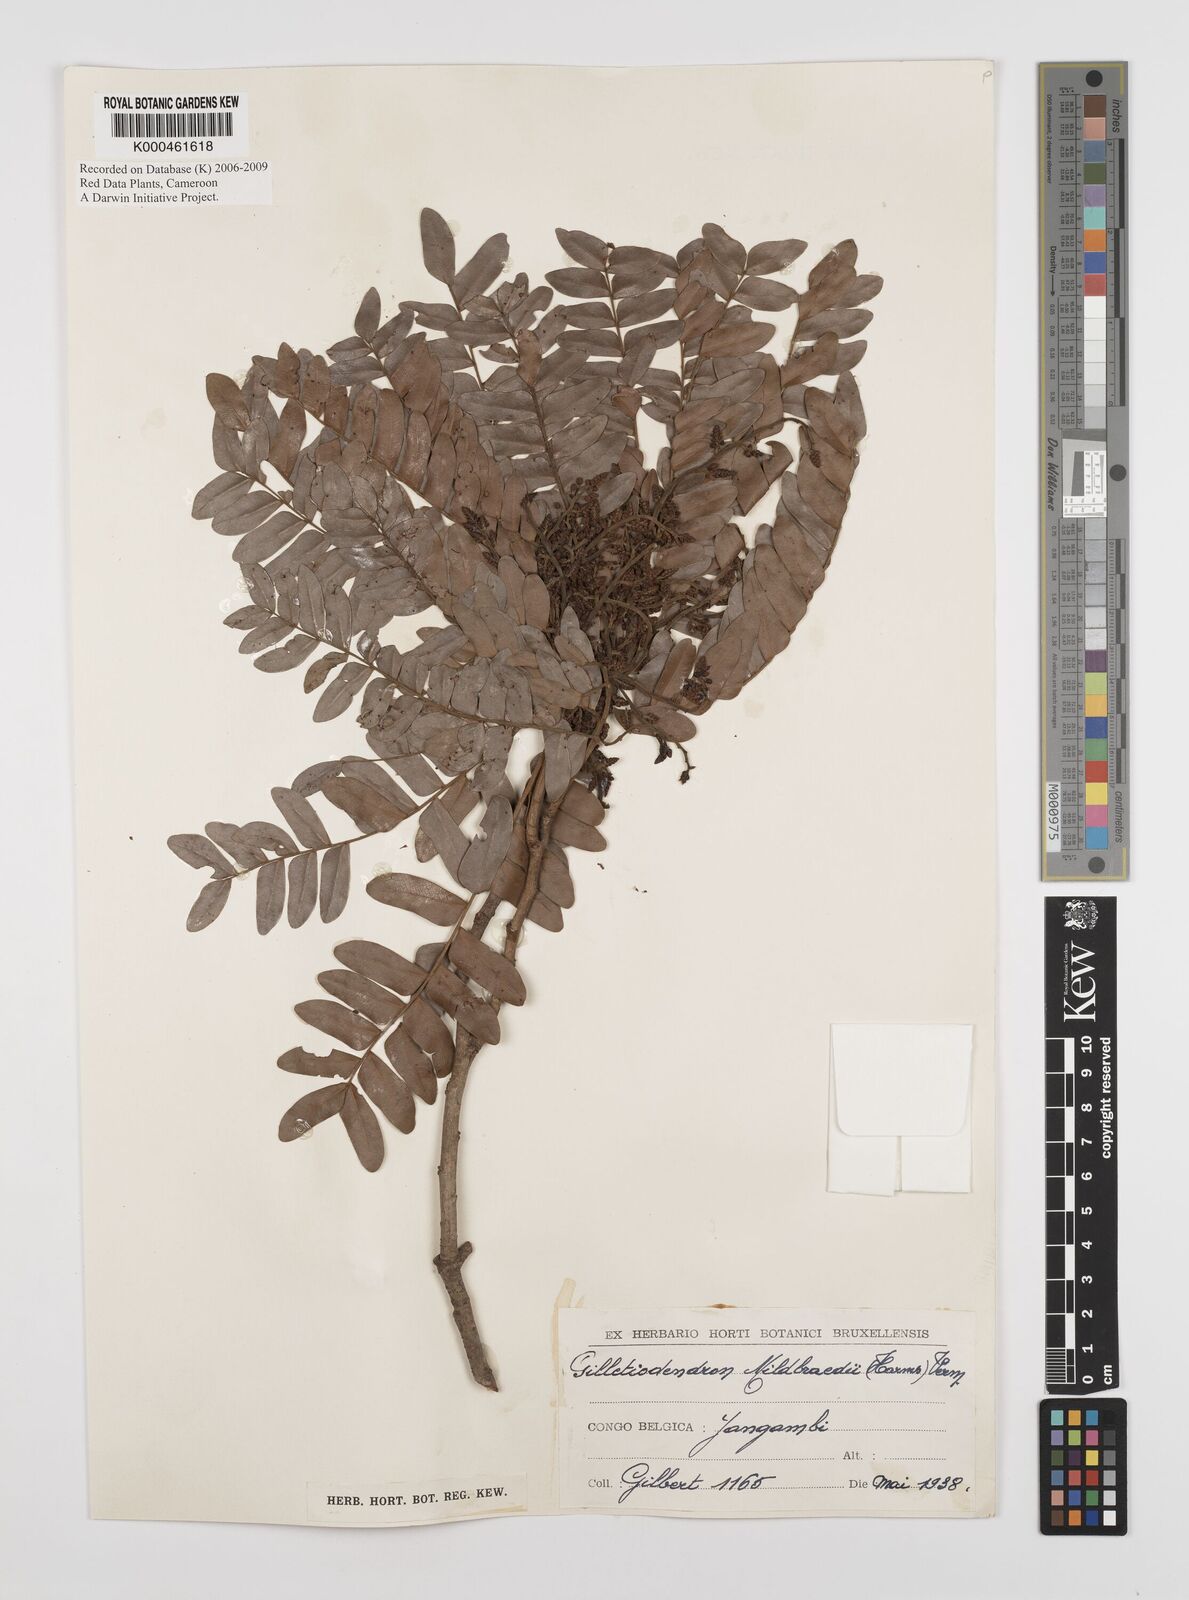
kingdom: Plantae
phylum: Tracheophyta
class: Magnoliopsida
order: Fabales
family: Fabaceae
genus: Gilletiodendron
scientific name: Gilletiodendron mildbraedii
